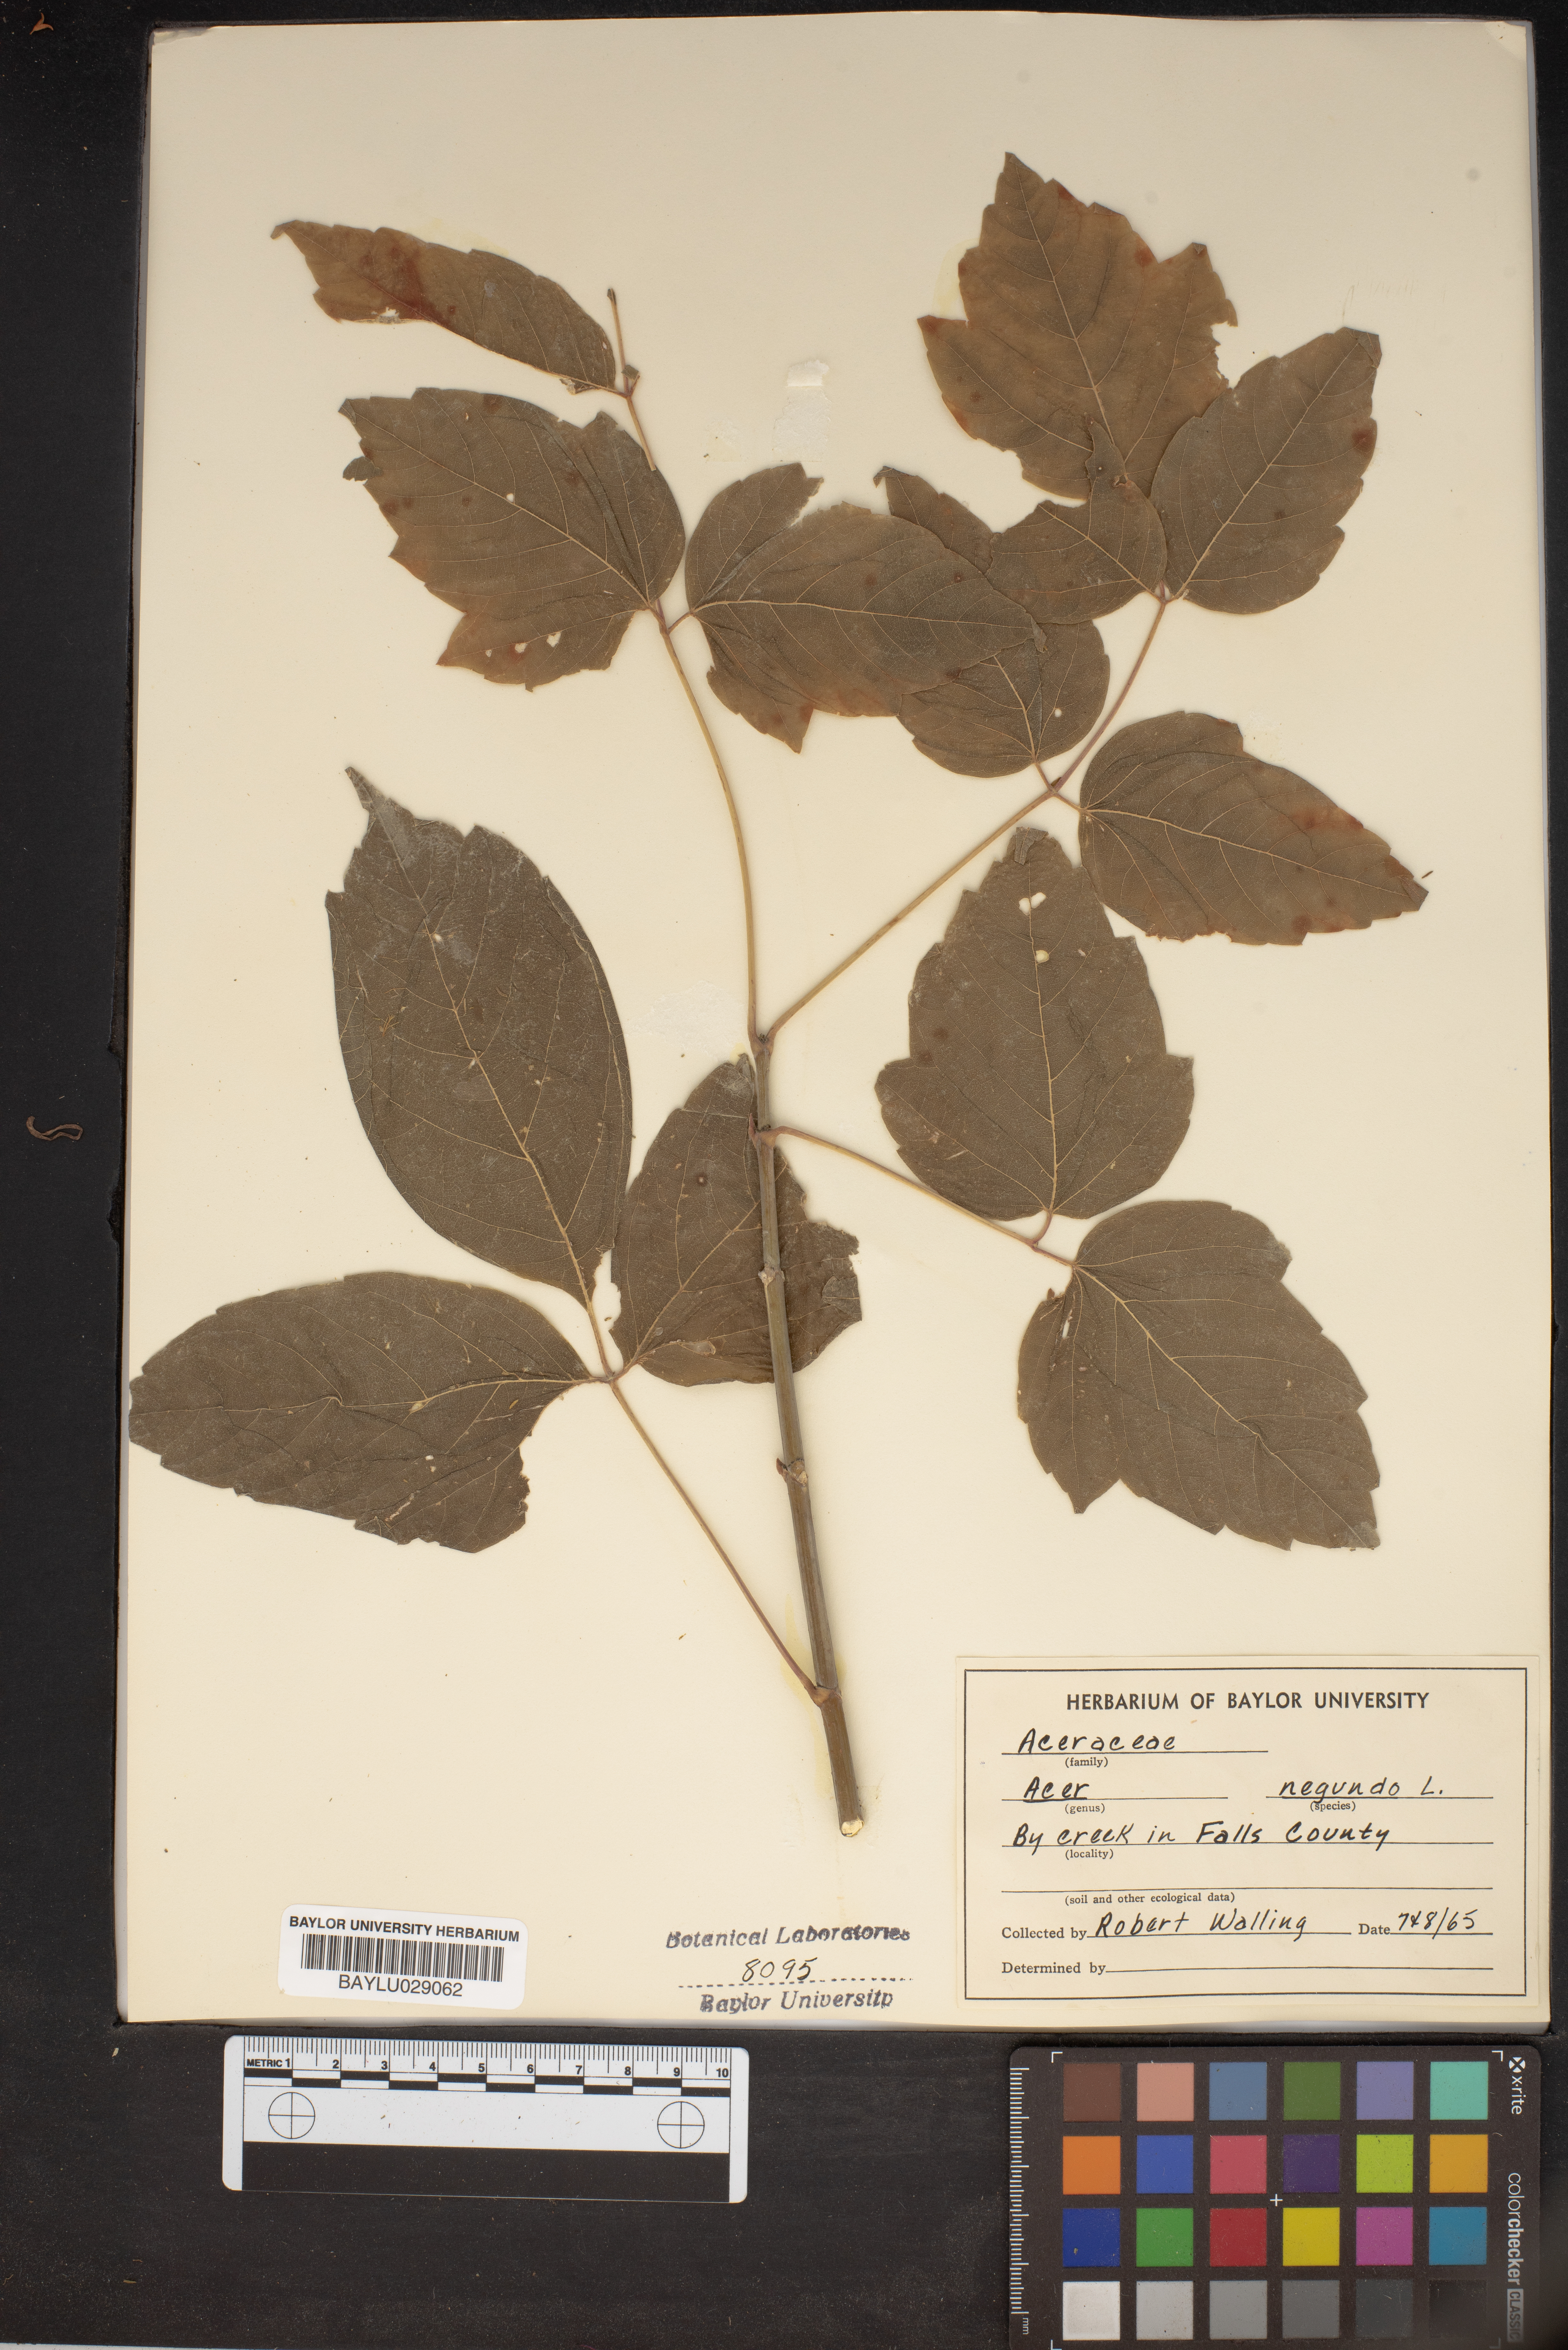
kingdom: Plantae
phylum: Tracheophyta
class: Magnoliopsida
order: Sapindales
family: Sapindaceae
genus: Acer
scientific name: Acer negundo
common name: Ashleaf maple
